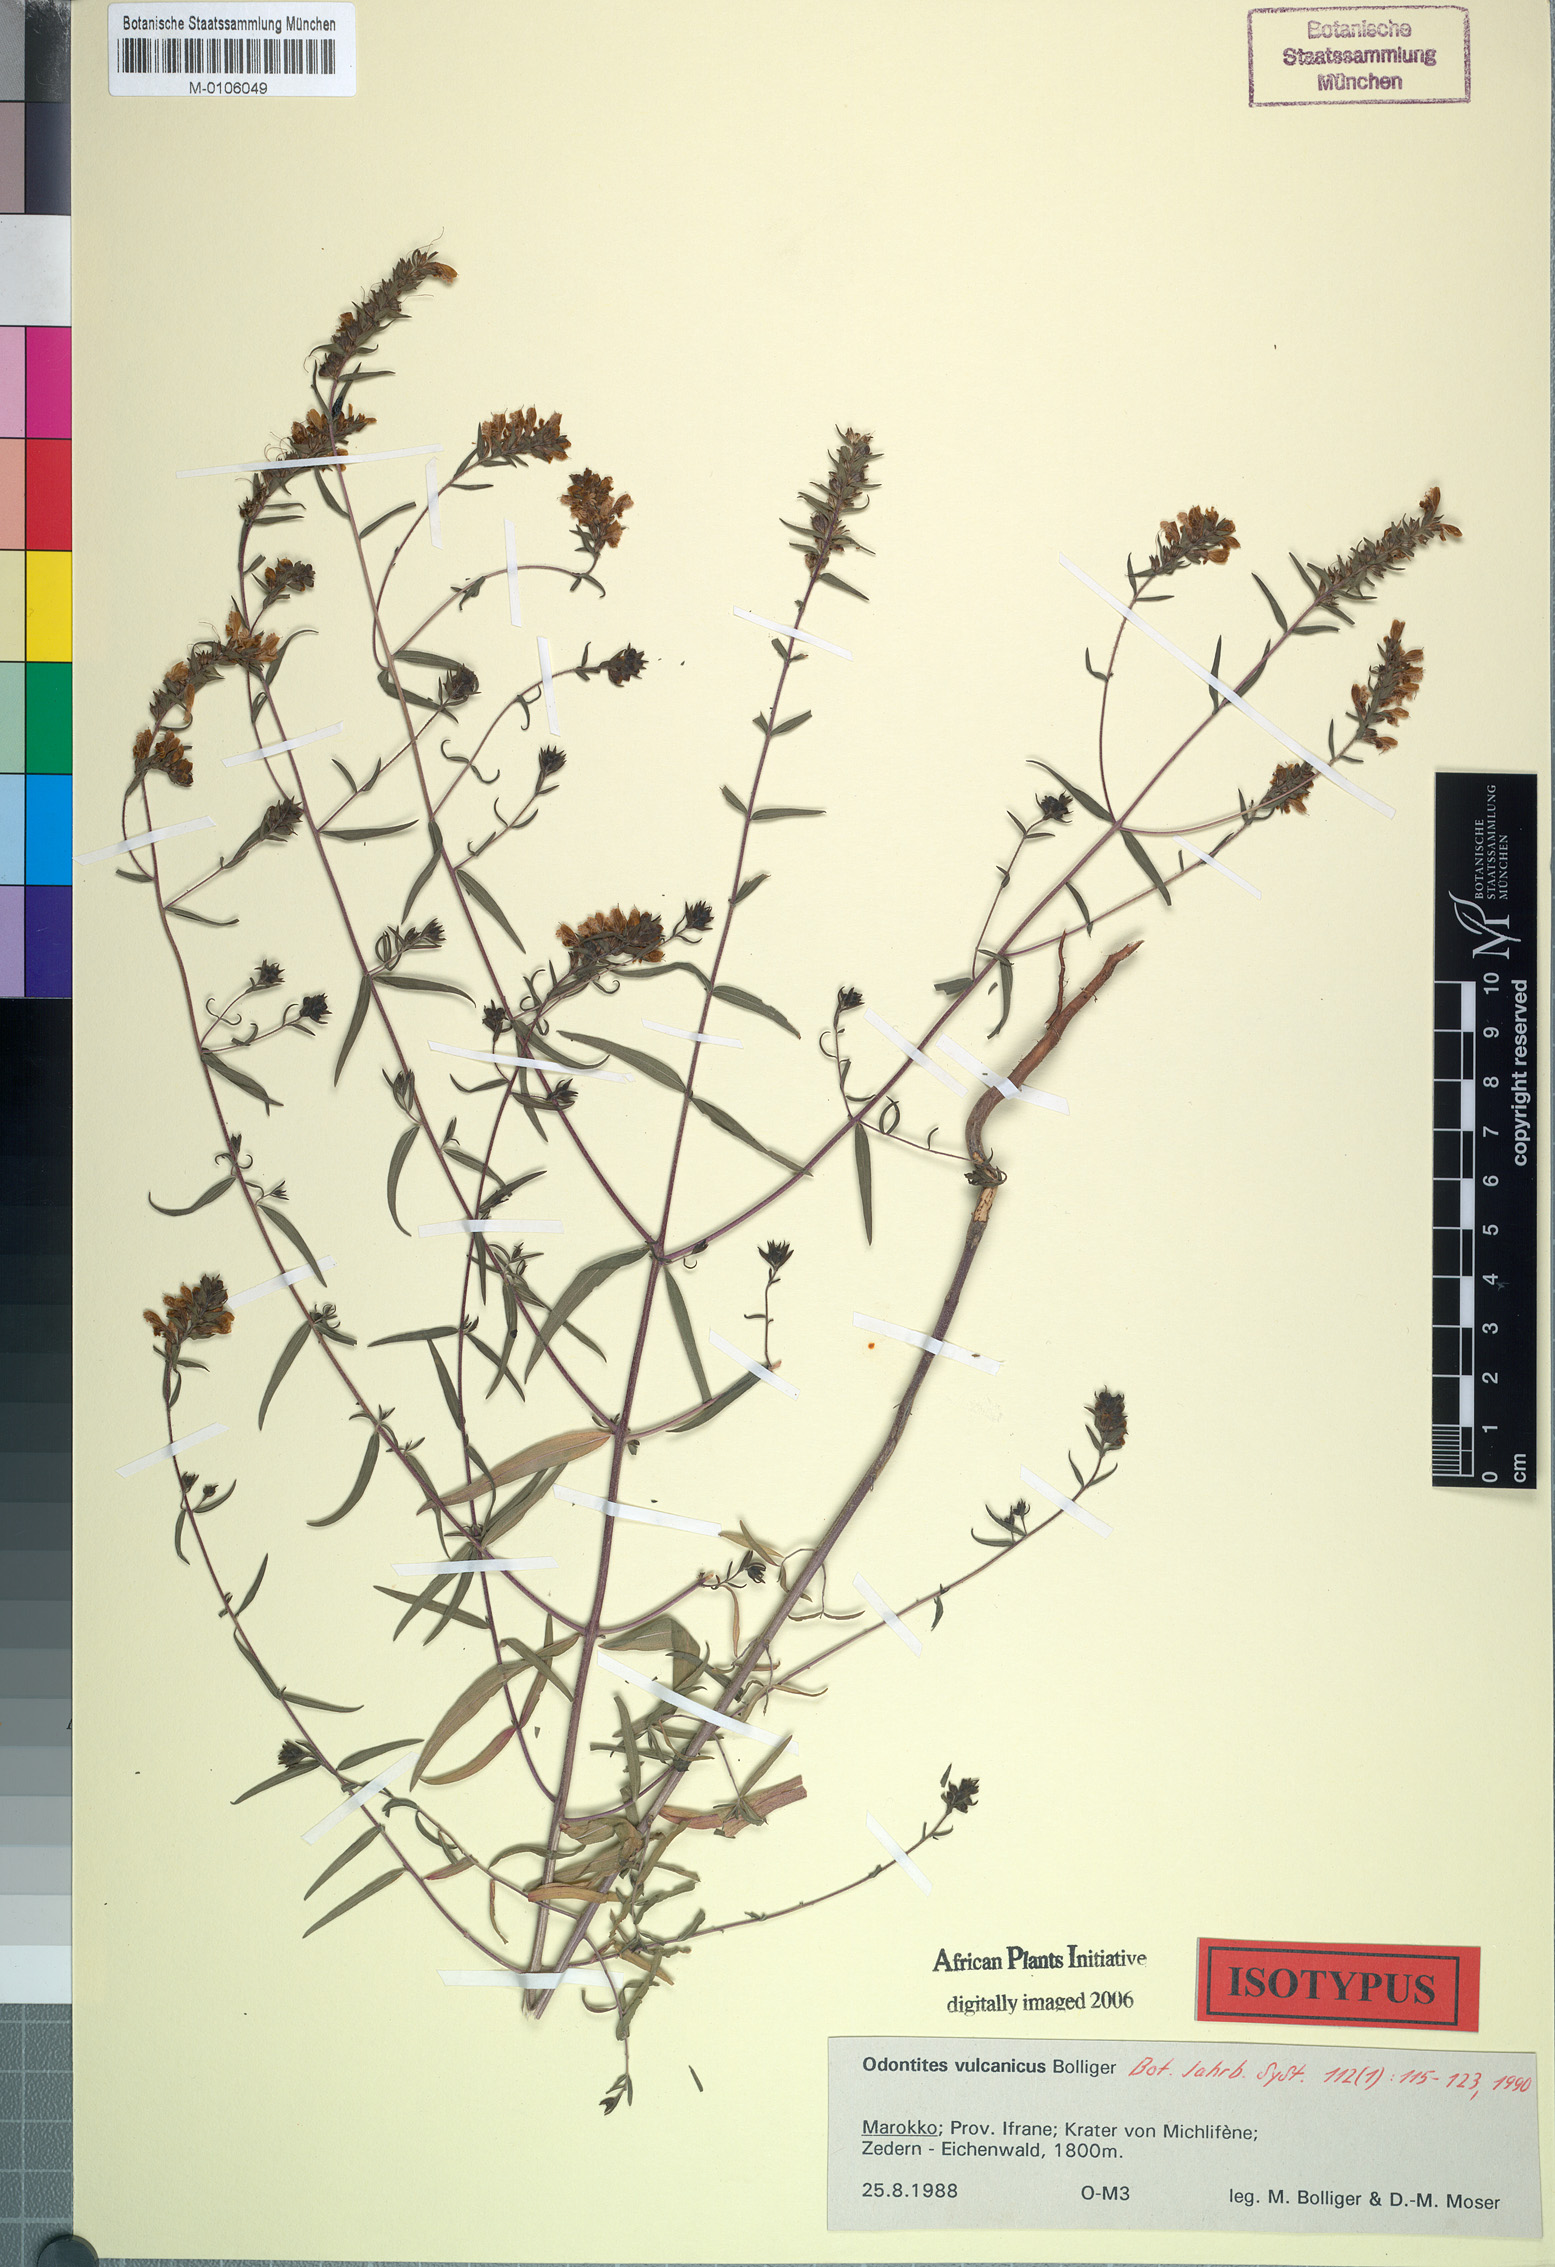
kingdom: Plantae
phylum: Tracheophyta
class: Magnoliopsida
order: Lamiales
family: Orobanchaceae
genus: Odontites
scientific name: Odontites vulcanicus
